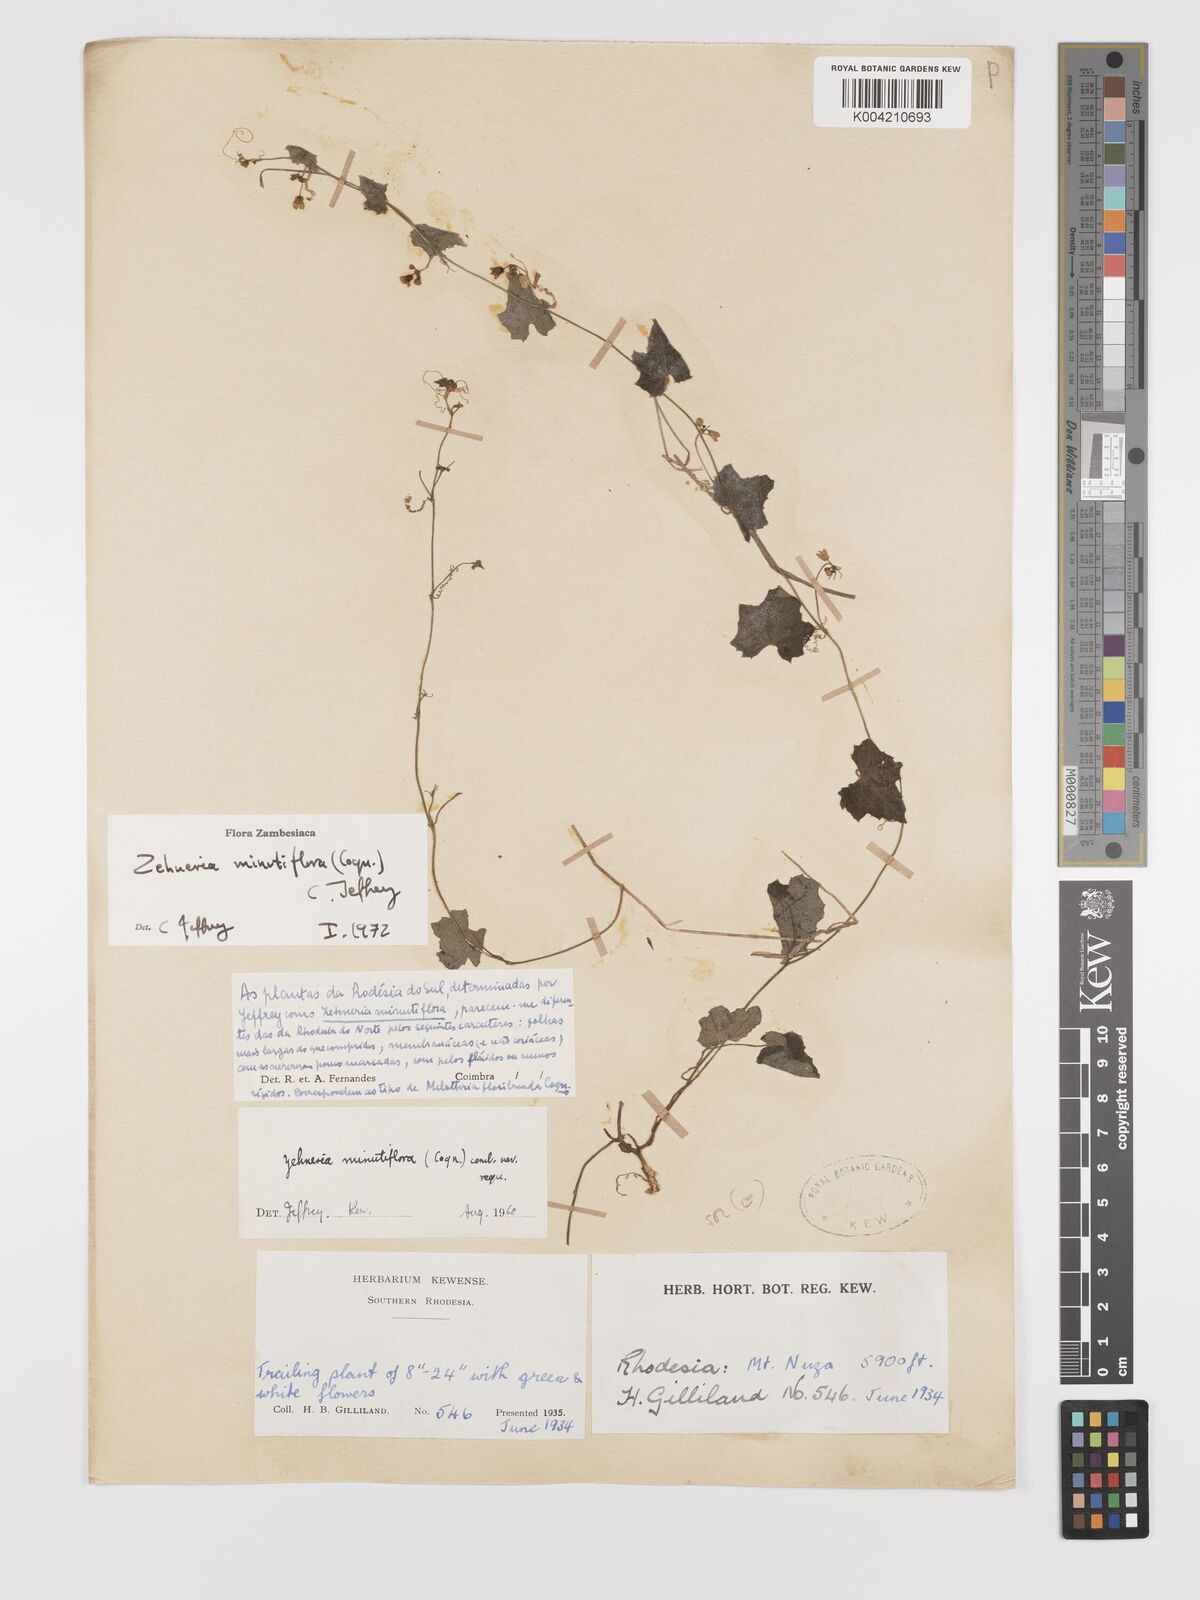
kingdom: Plantae
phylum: Tracheophyta
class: Magnoliopsida
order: Cucurbitales
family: Cucurbitaceae
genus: Zehneria
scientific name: Zehneria minutiflora
